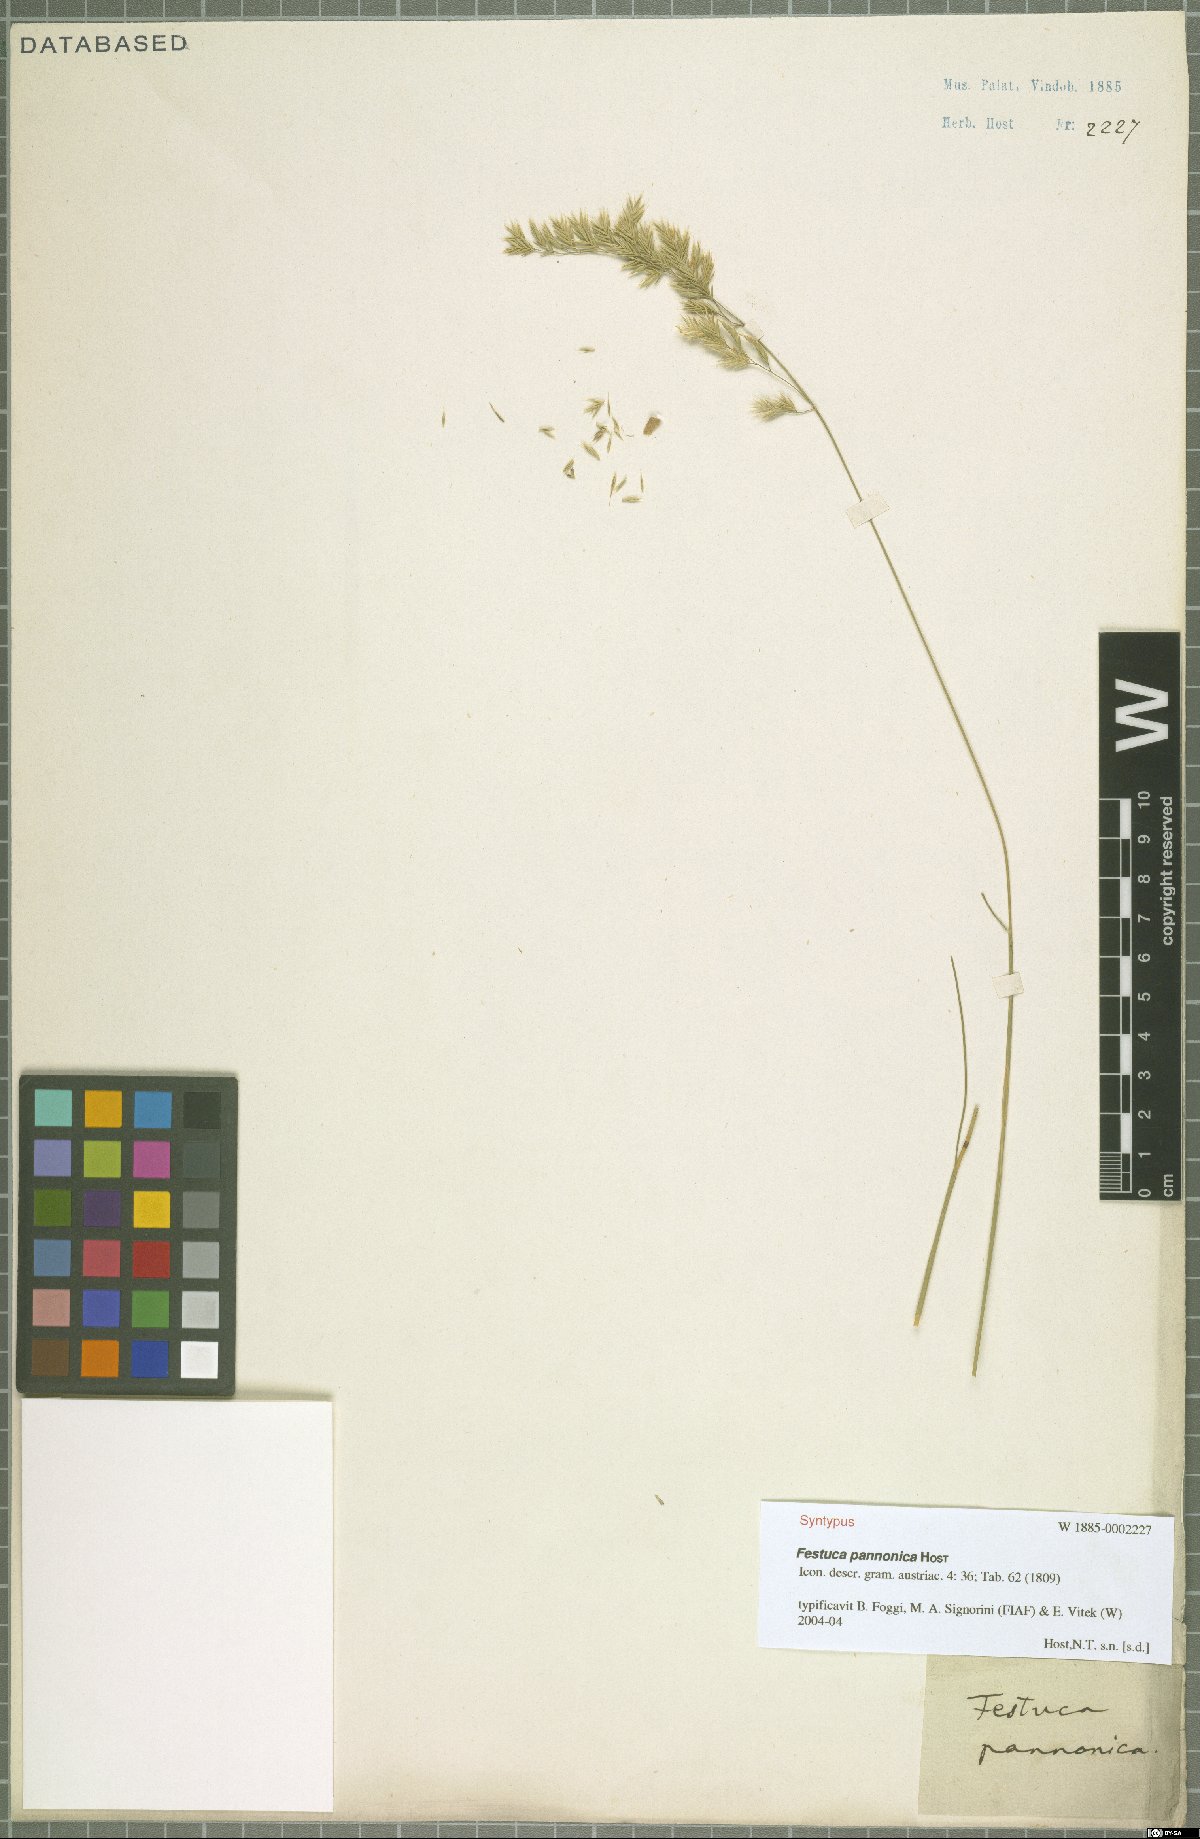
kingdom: Plantae
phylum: Tracheophyta
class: Liliopsida
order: Poales
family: Poaceae
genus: Festuca
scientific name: Festuca valesiaca
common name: Volga fescue
